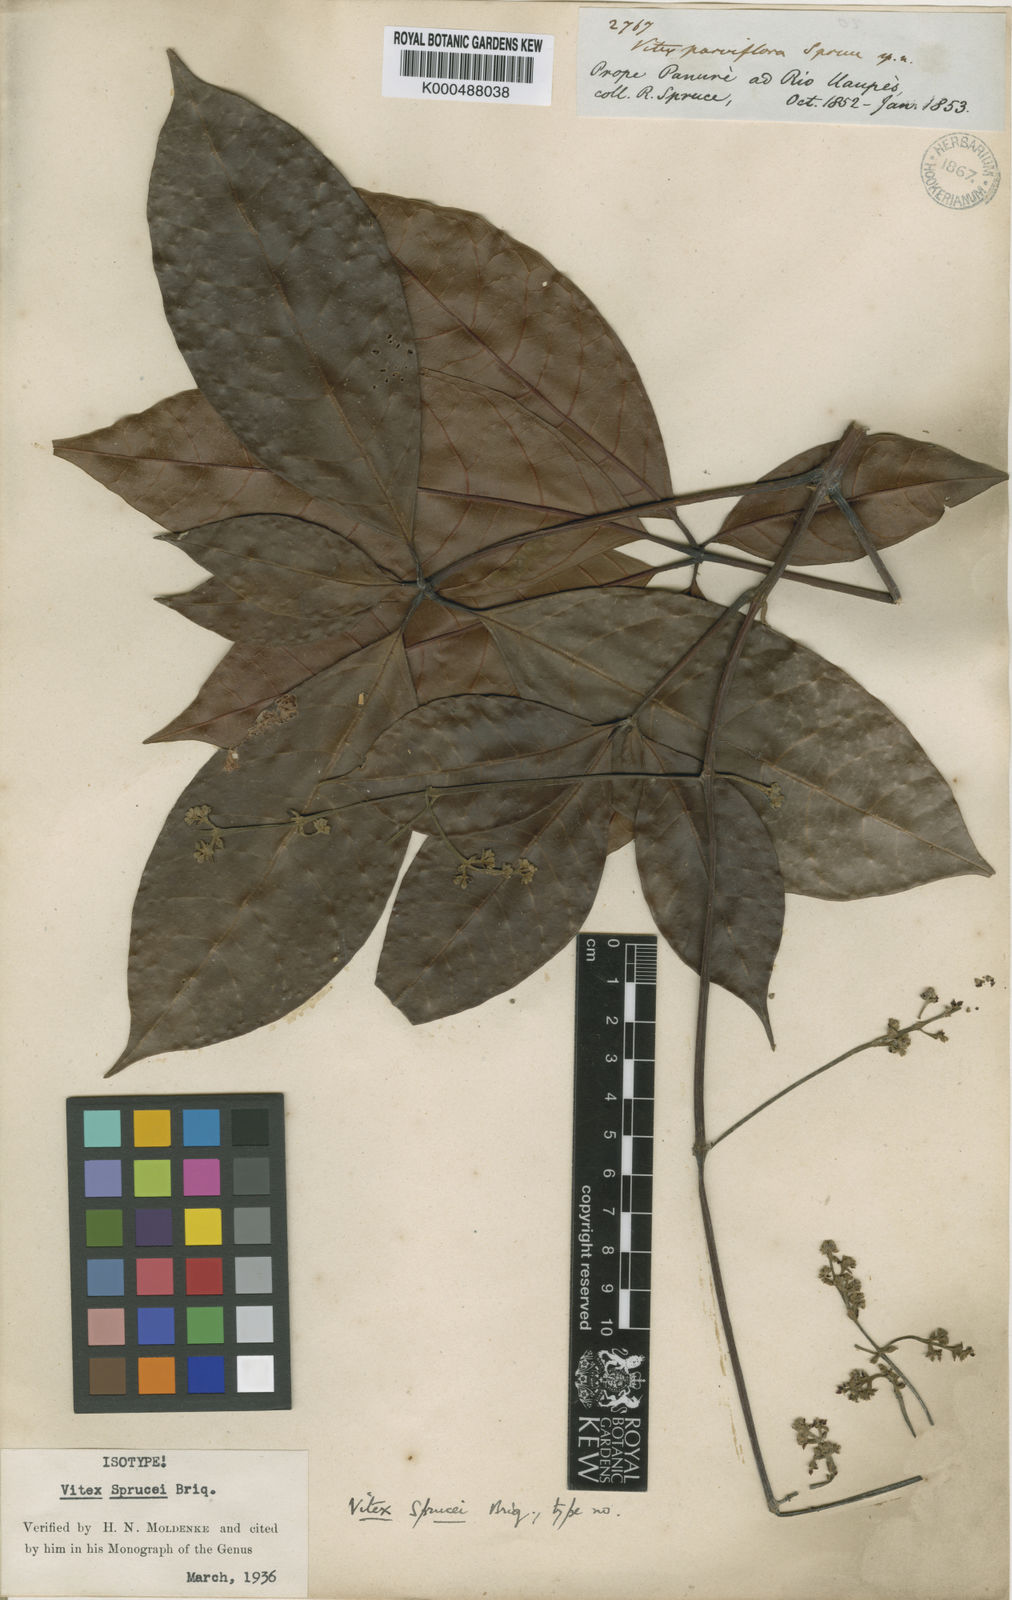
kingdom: Plantae
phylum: Tracheophyta
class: Magnoliopsida
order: Lamiales
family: Lamiaceae
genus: Vitex
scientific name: Vitex sprucei
